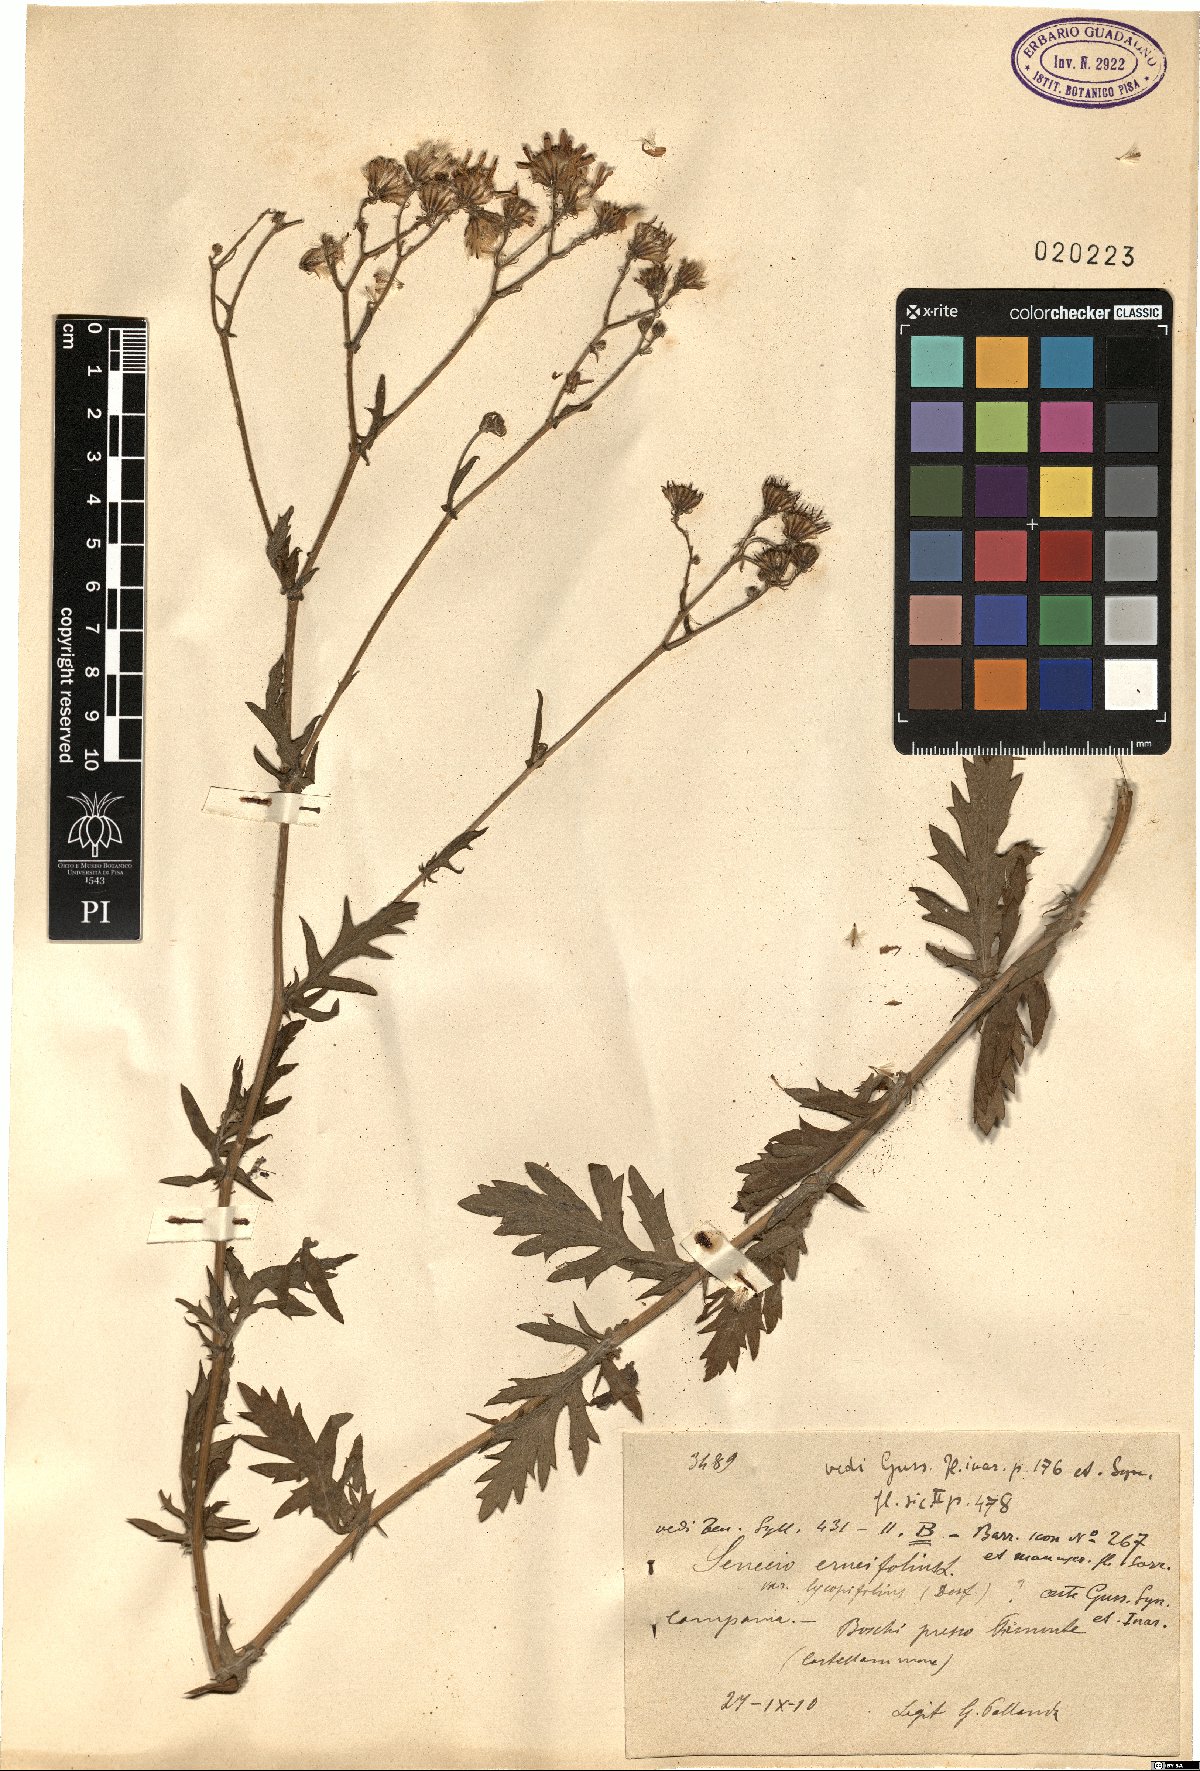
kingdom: Plantae
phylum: Tracheophyta
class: Magnoliopsida
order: Asterales
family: Asteraceae
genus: Jacobaea
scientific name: Jacobaea erucifolia
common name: Hoary ragwort
